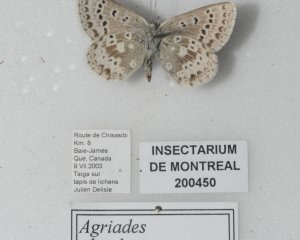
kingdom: Animalia
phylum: Arthropoda
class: Insecta
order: Lepidoptera
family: Lycaenidae
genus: Agriades
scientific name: Agriades glandon
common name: Arctic Blue
